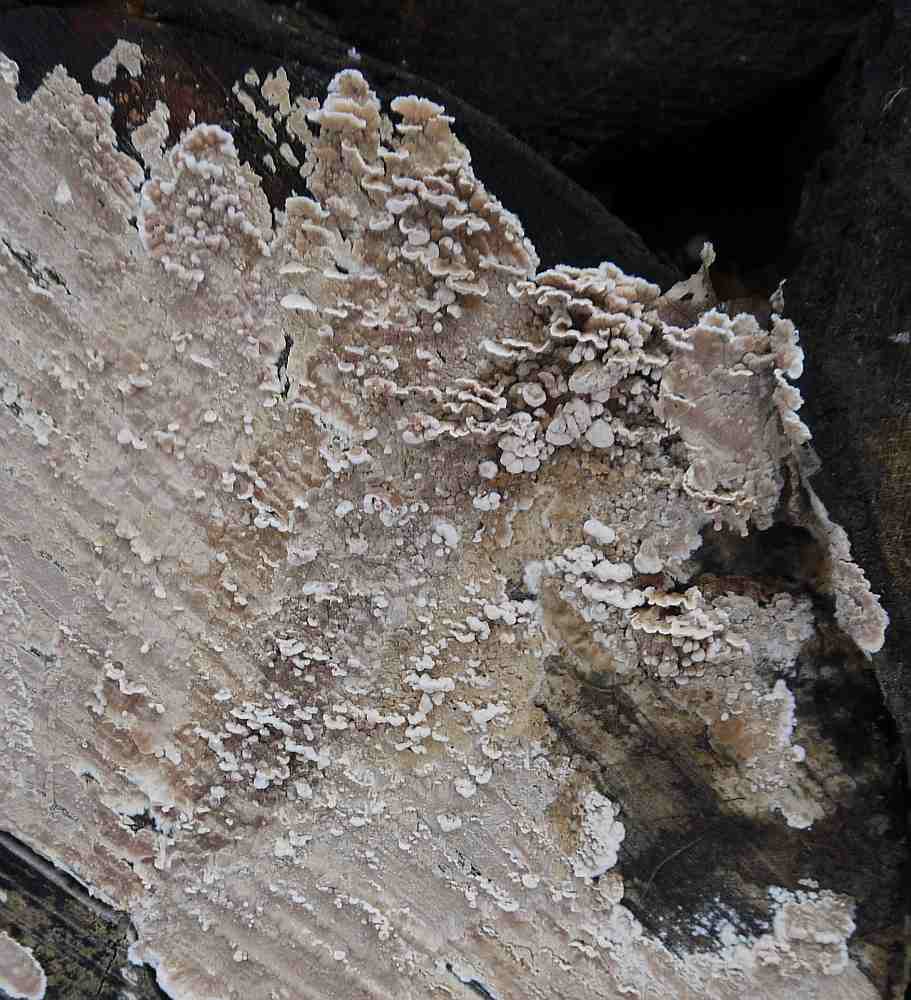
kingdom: Fungi
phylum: Basidiomycota
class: Agaricomycetes
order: Agaricales
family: Physalacriaceae
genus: Cylindrobasidium
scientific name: Cylindrobasidium evolvens
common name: sprækkehinde
